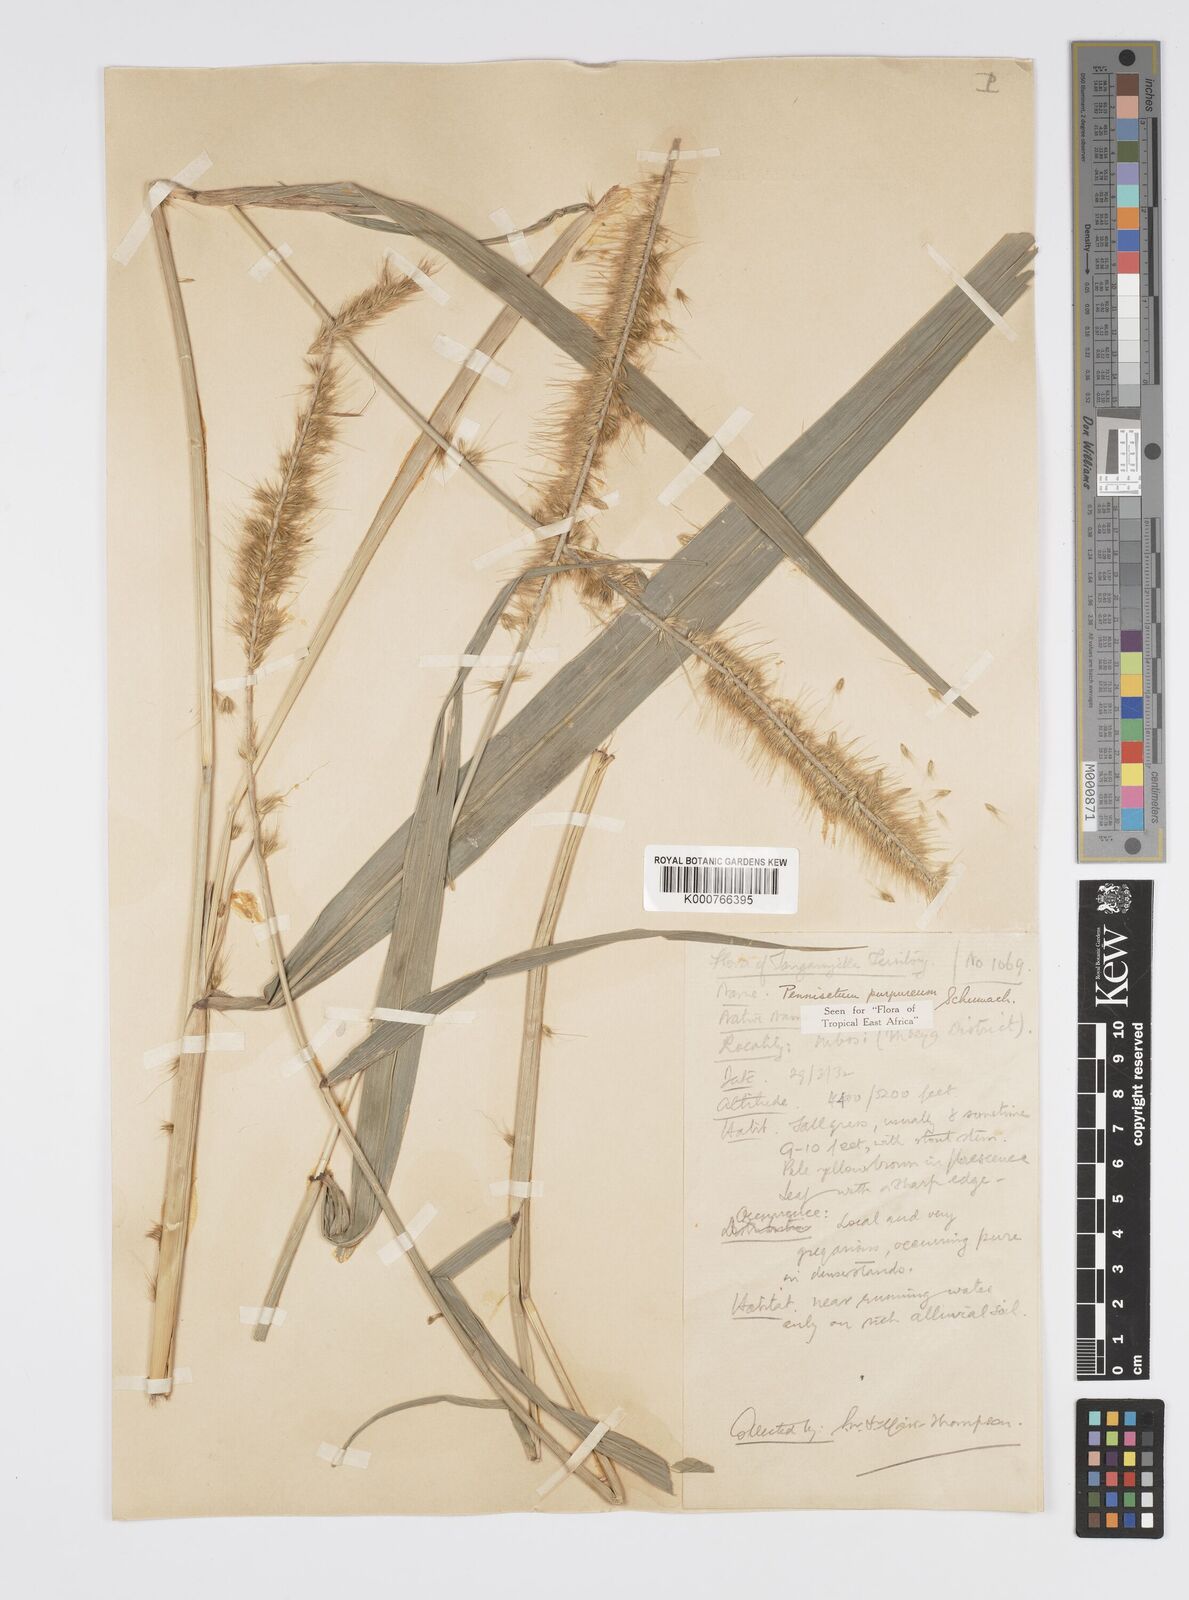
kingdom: Plantae
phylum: Tracheophyta
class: Liliopsida
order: Poales
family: Poaceae
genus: Cenchrus
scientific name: Cenchrus purpureus
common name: Elephant grass
